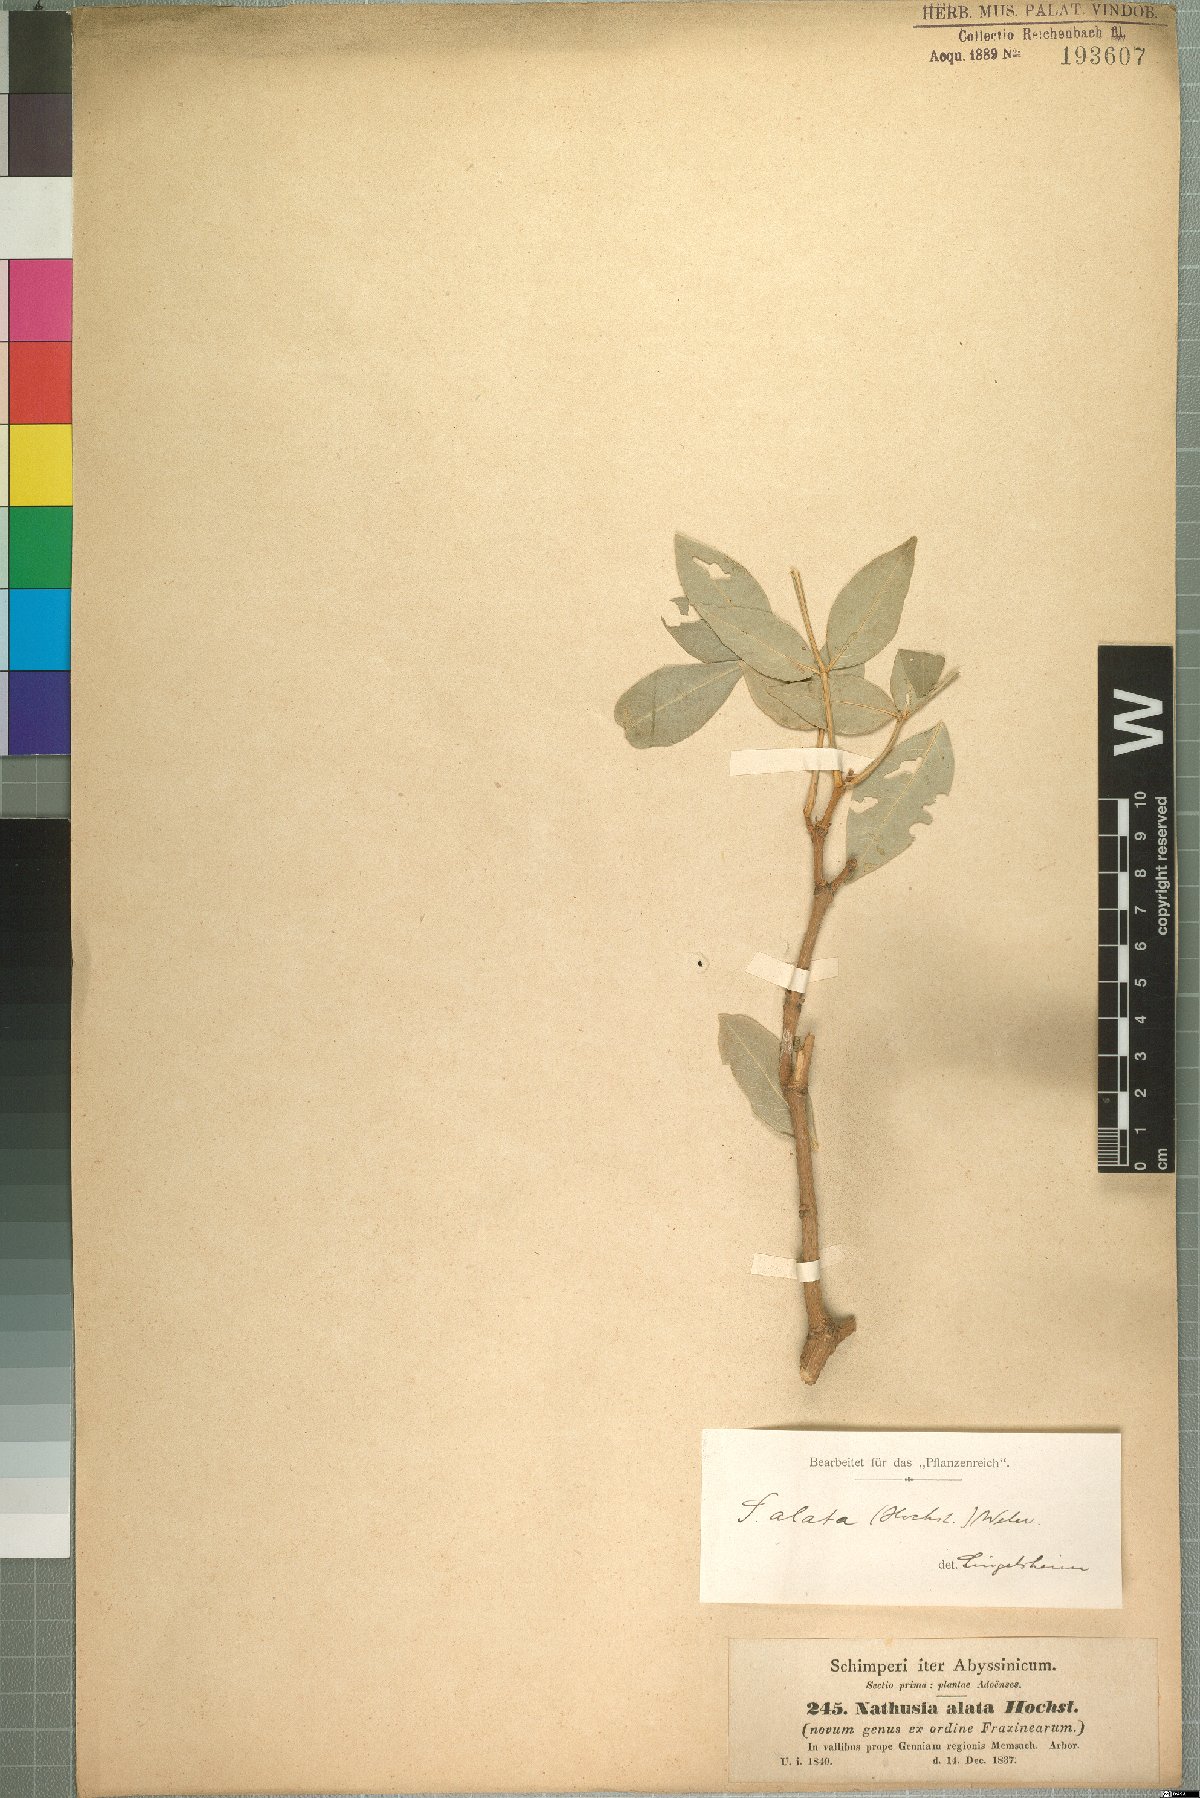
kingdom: Plantae
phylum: Tracheophyta
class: Magnoliopsida
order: Lamiales
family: Oleaceae
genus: Schrebera
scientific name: Schrebera alata
